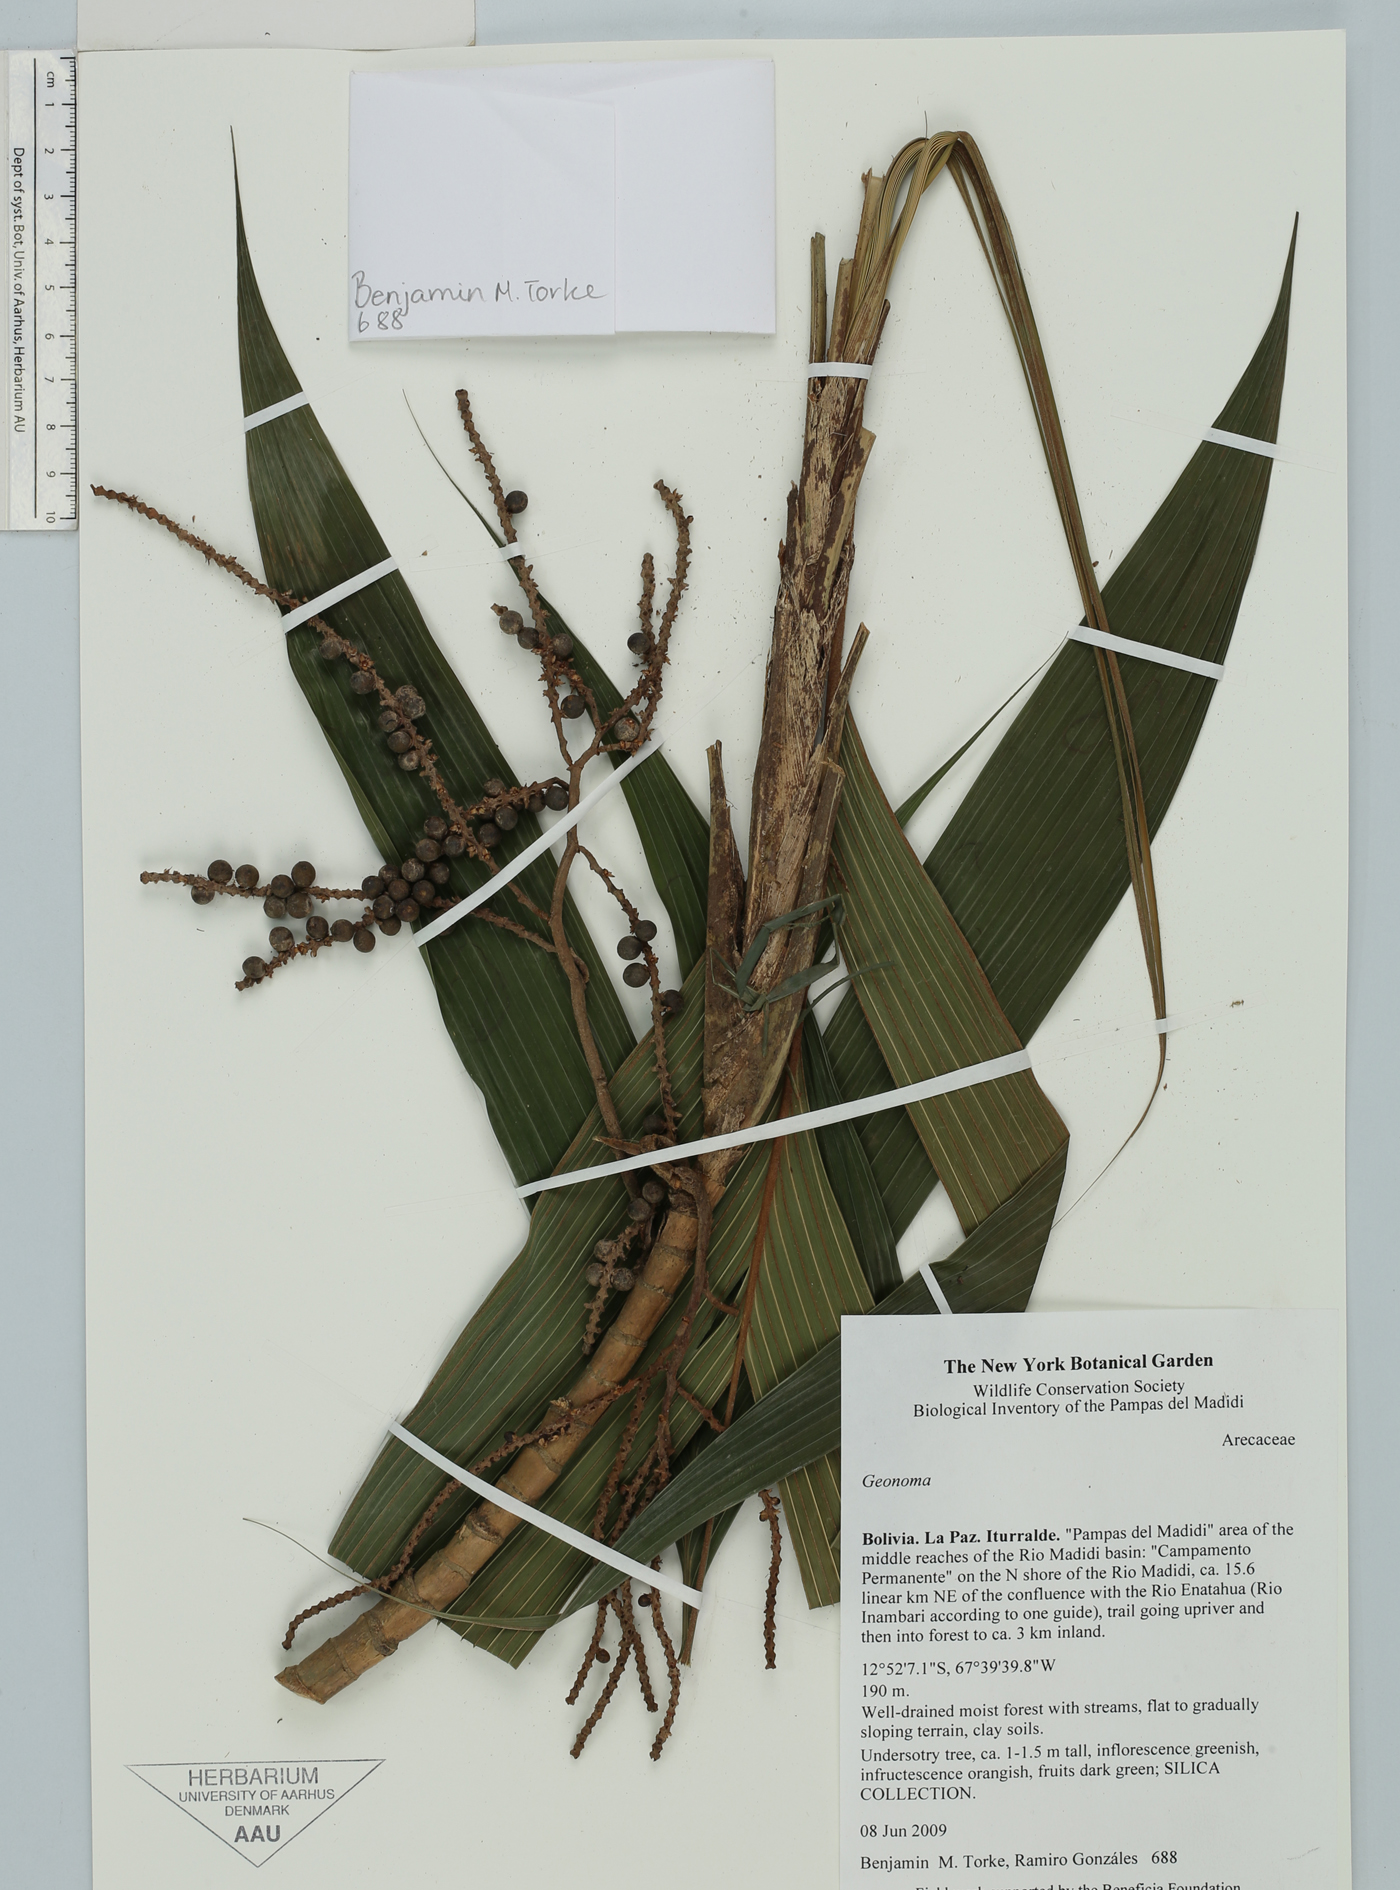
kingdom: Plantae
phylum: Tracheophyta
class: Liliopsida
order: Arecales
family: Arecaceae
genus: Geonoma
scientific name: Geonoma
